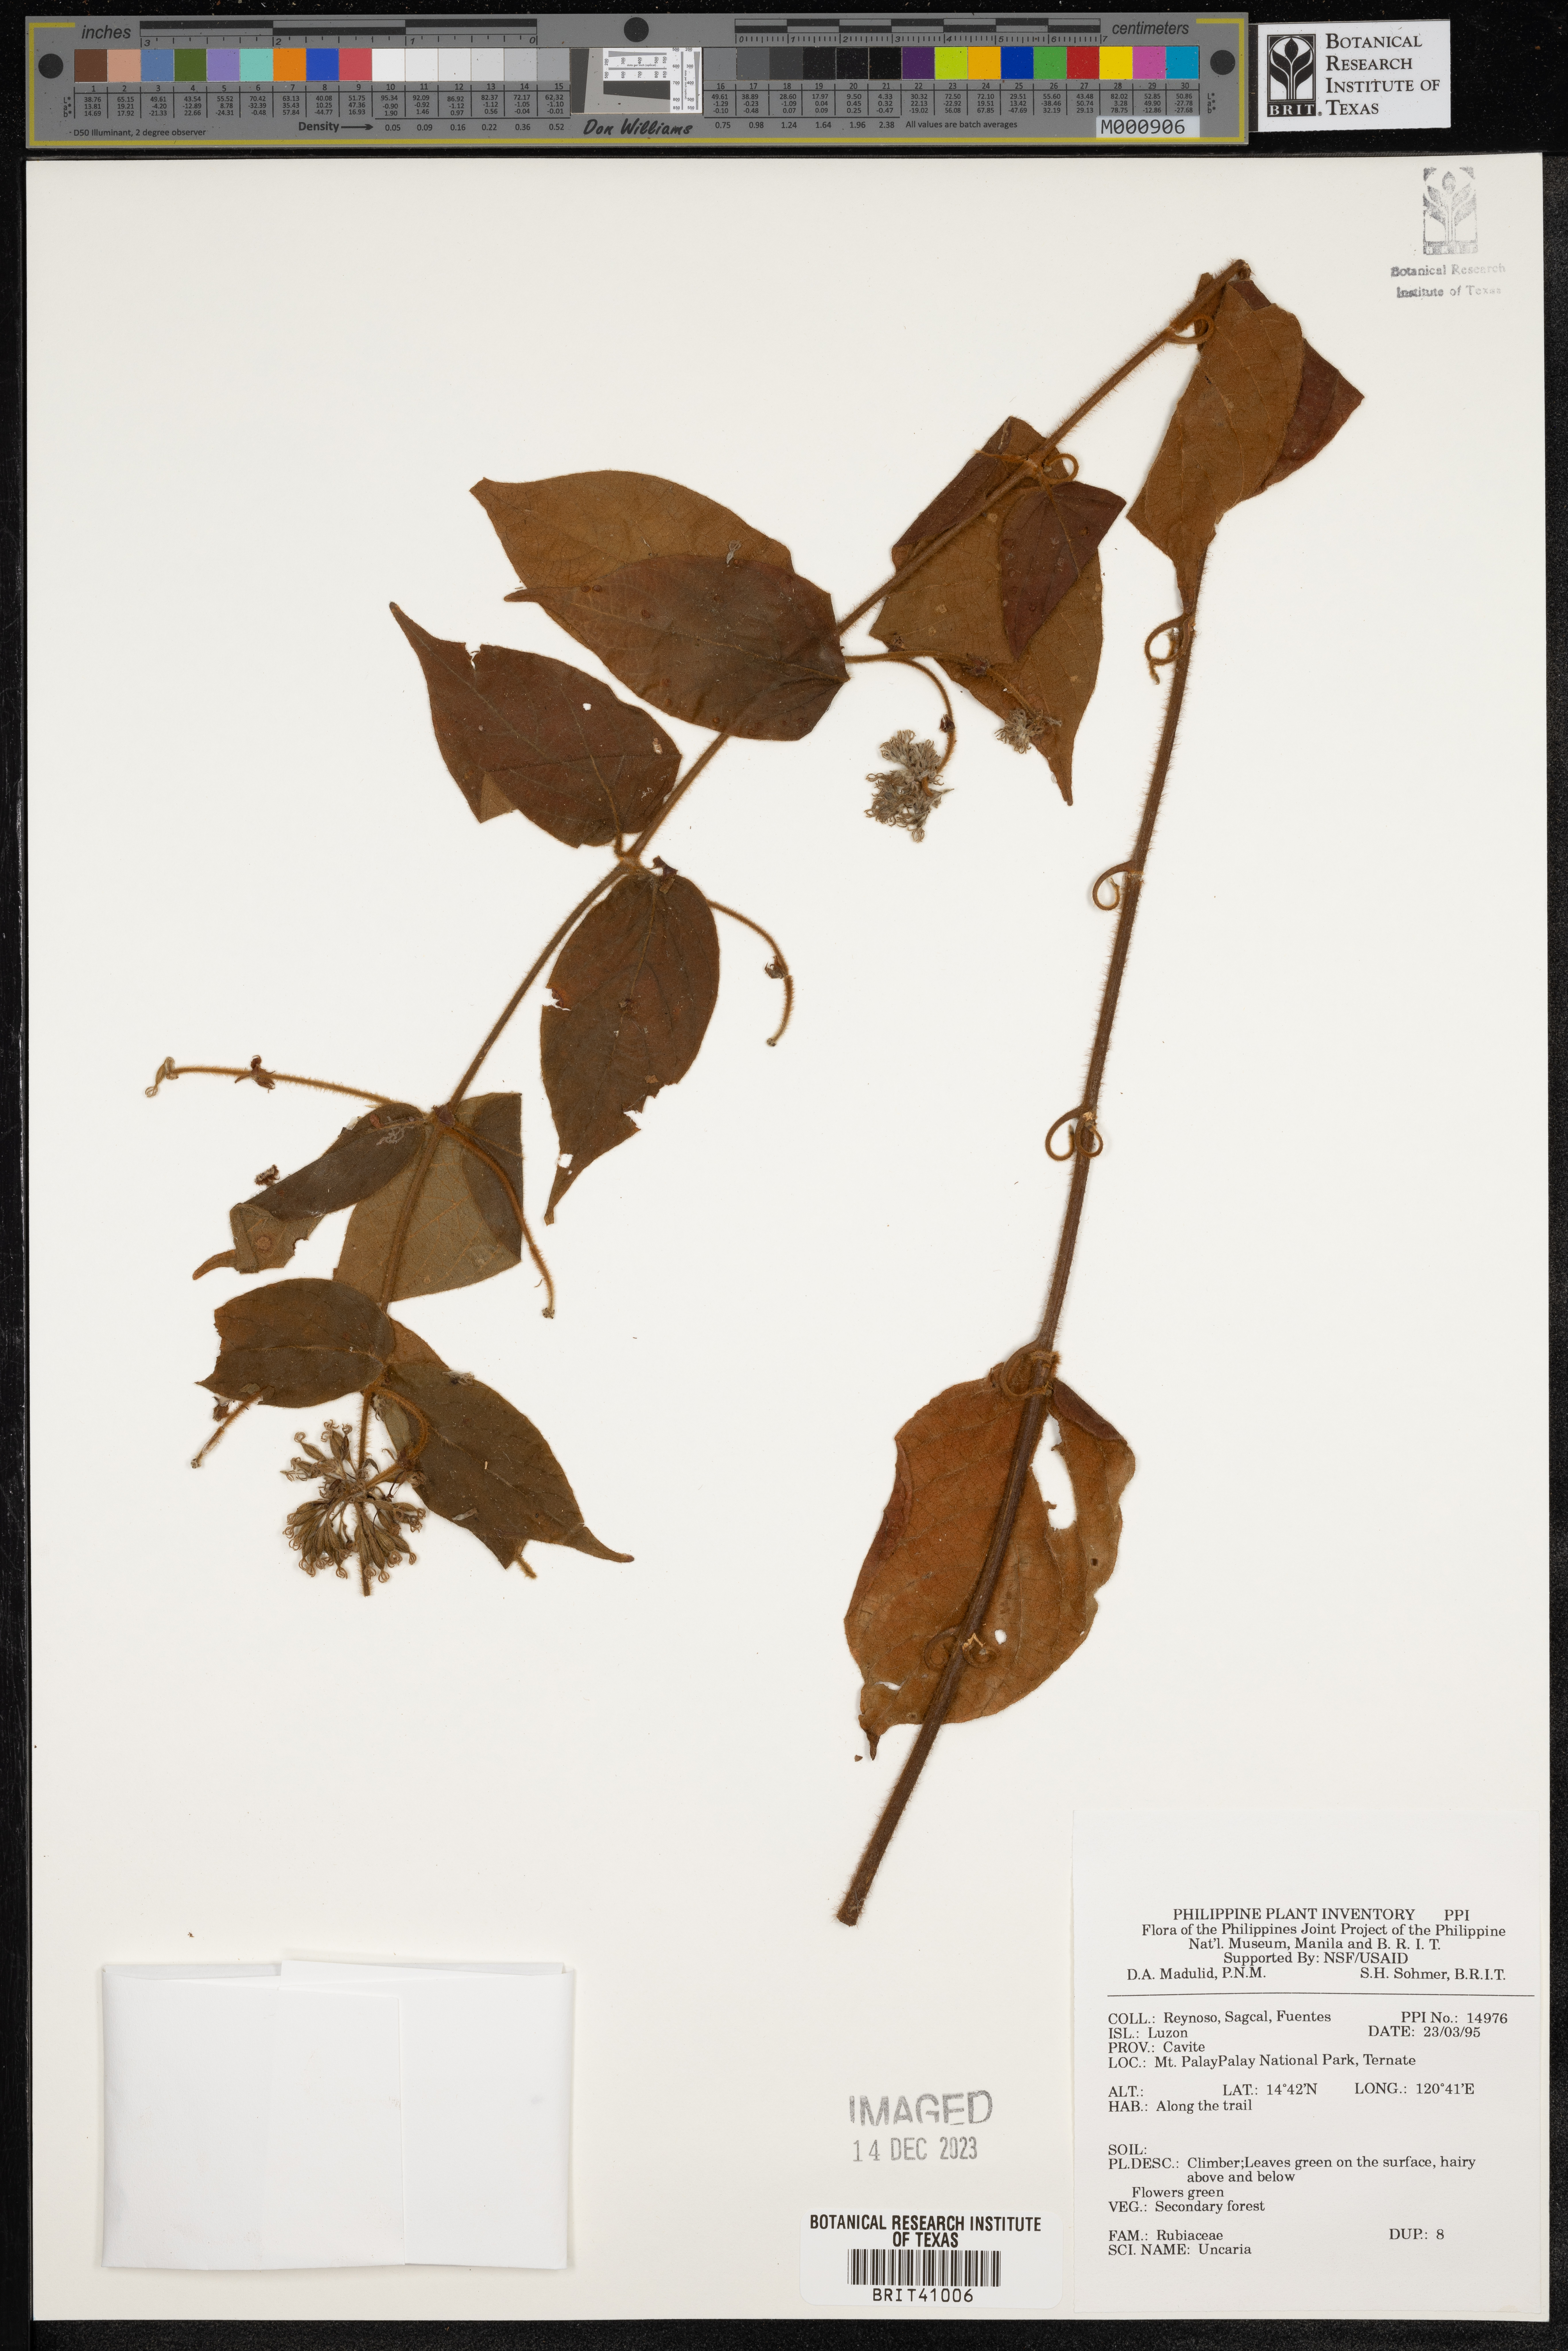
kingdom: Plantae
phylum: Tracheophyta
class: Magnoliopsida
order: Gentianales
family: Rubiaceae
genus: Uncaria
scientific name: Uncaria
